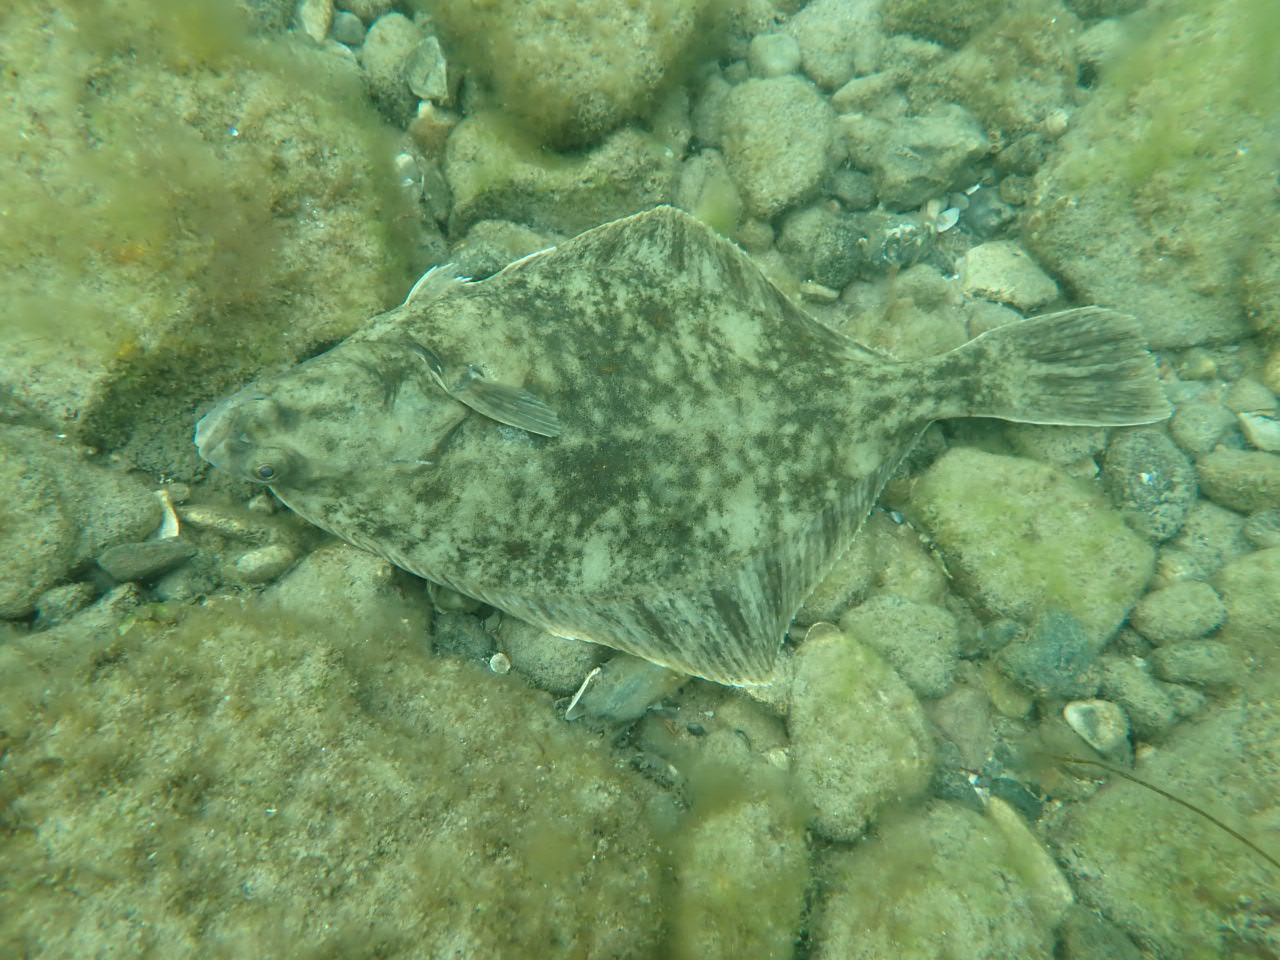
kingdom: Animalia
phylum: Chordata
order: Pleuronectiformes
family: Pleuronectidae
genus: Platichthys
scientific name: Platichthys flesus
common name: Skrubbe
